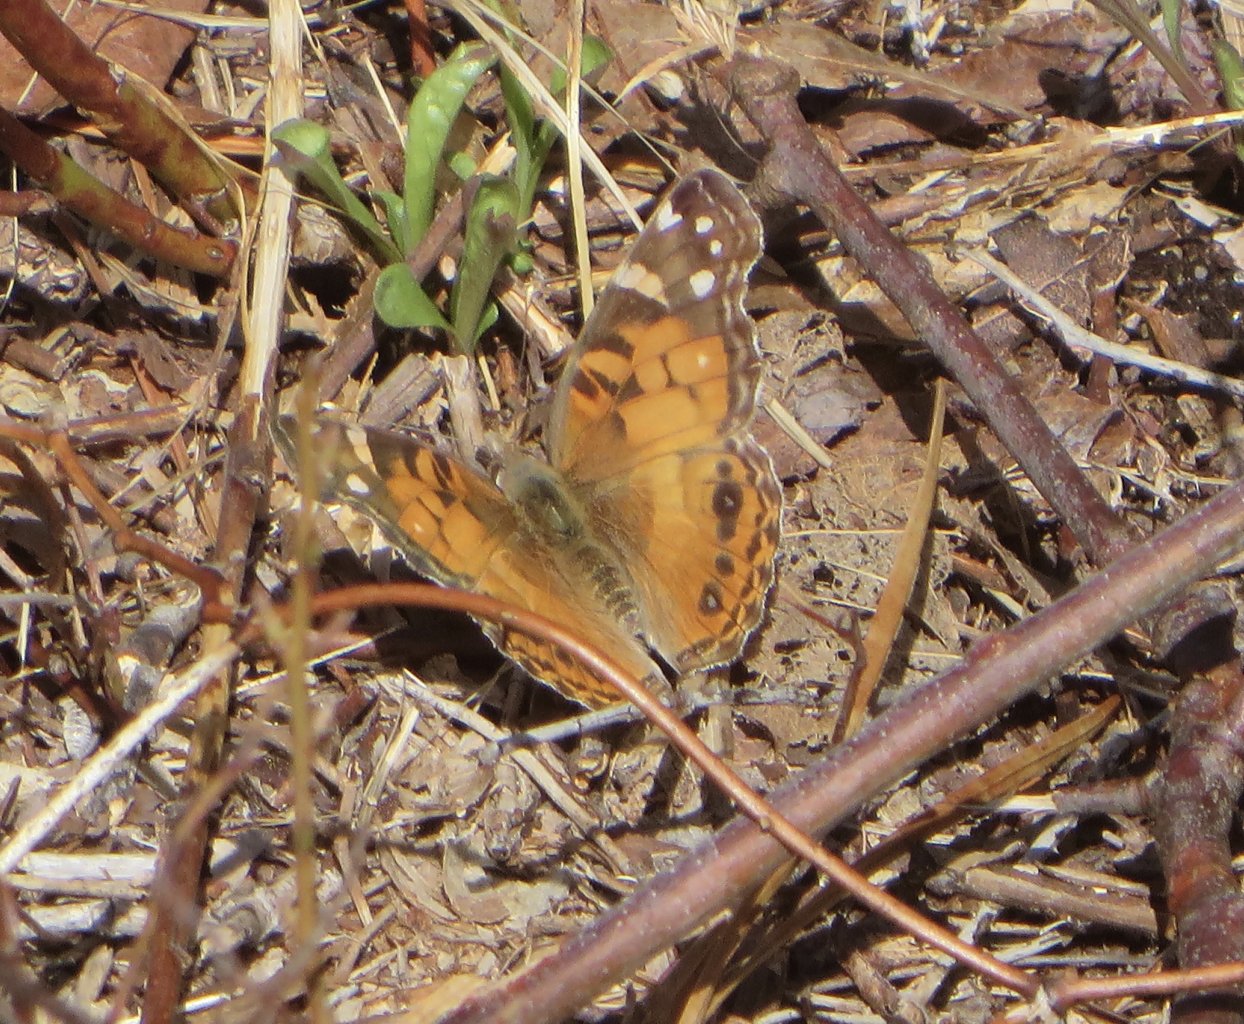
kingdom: Animalia
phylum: Arthropoda
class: Insecta
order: Lepidoptera
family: Nymphalidae
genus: Vanessa
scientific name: Vanessa virginiensis
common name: American Lady
